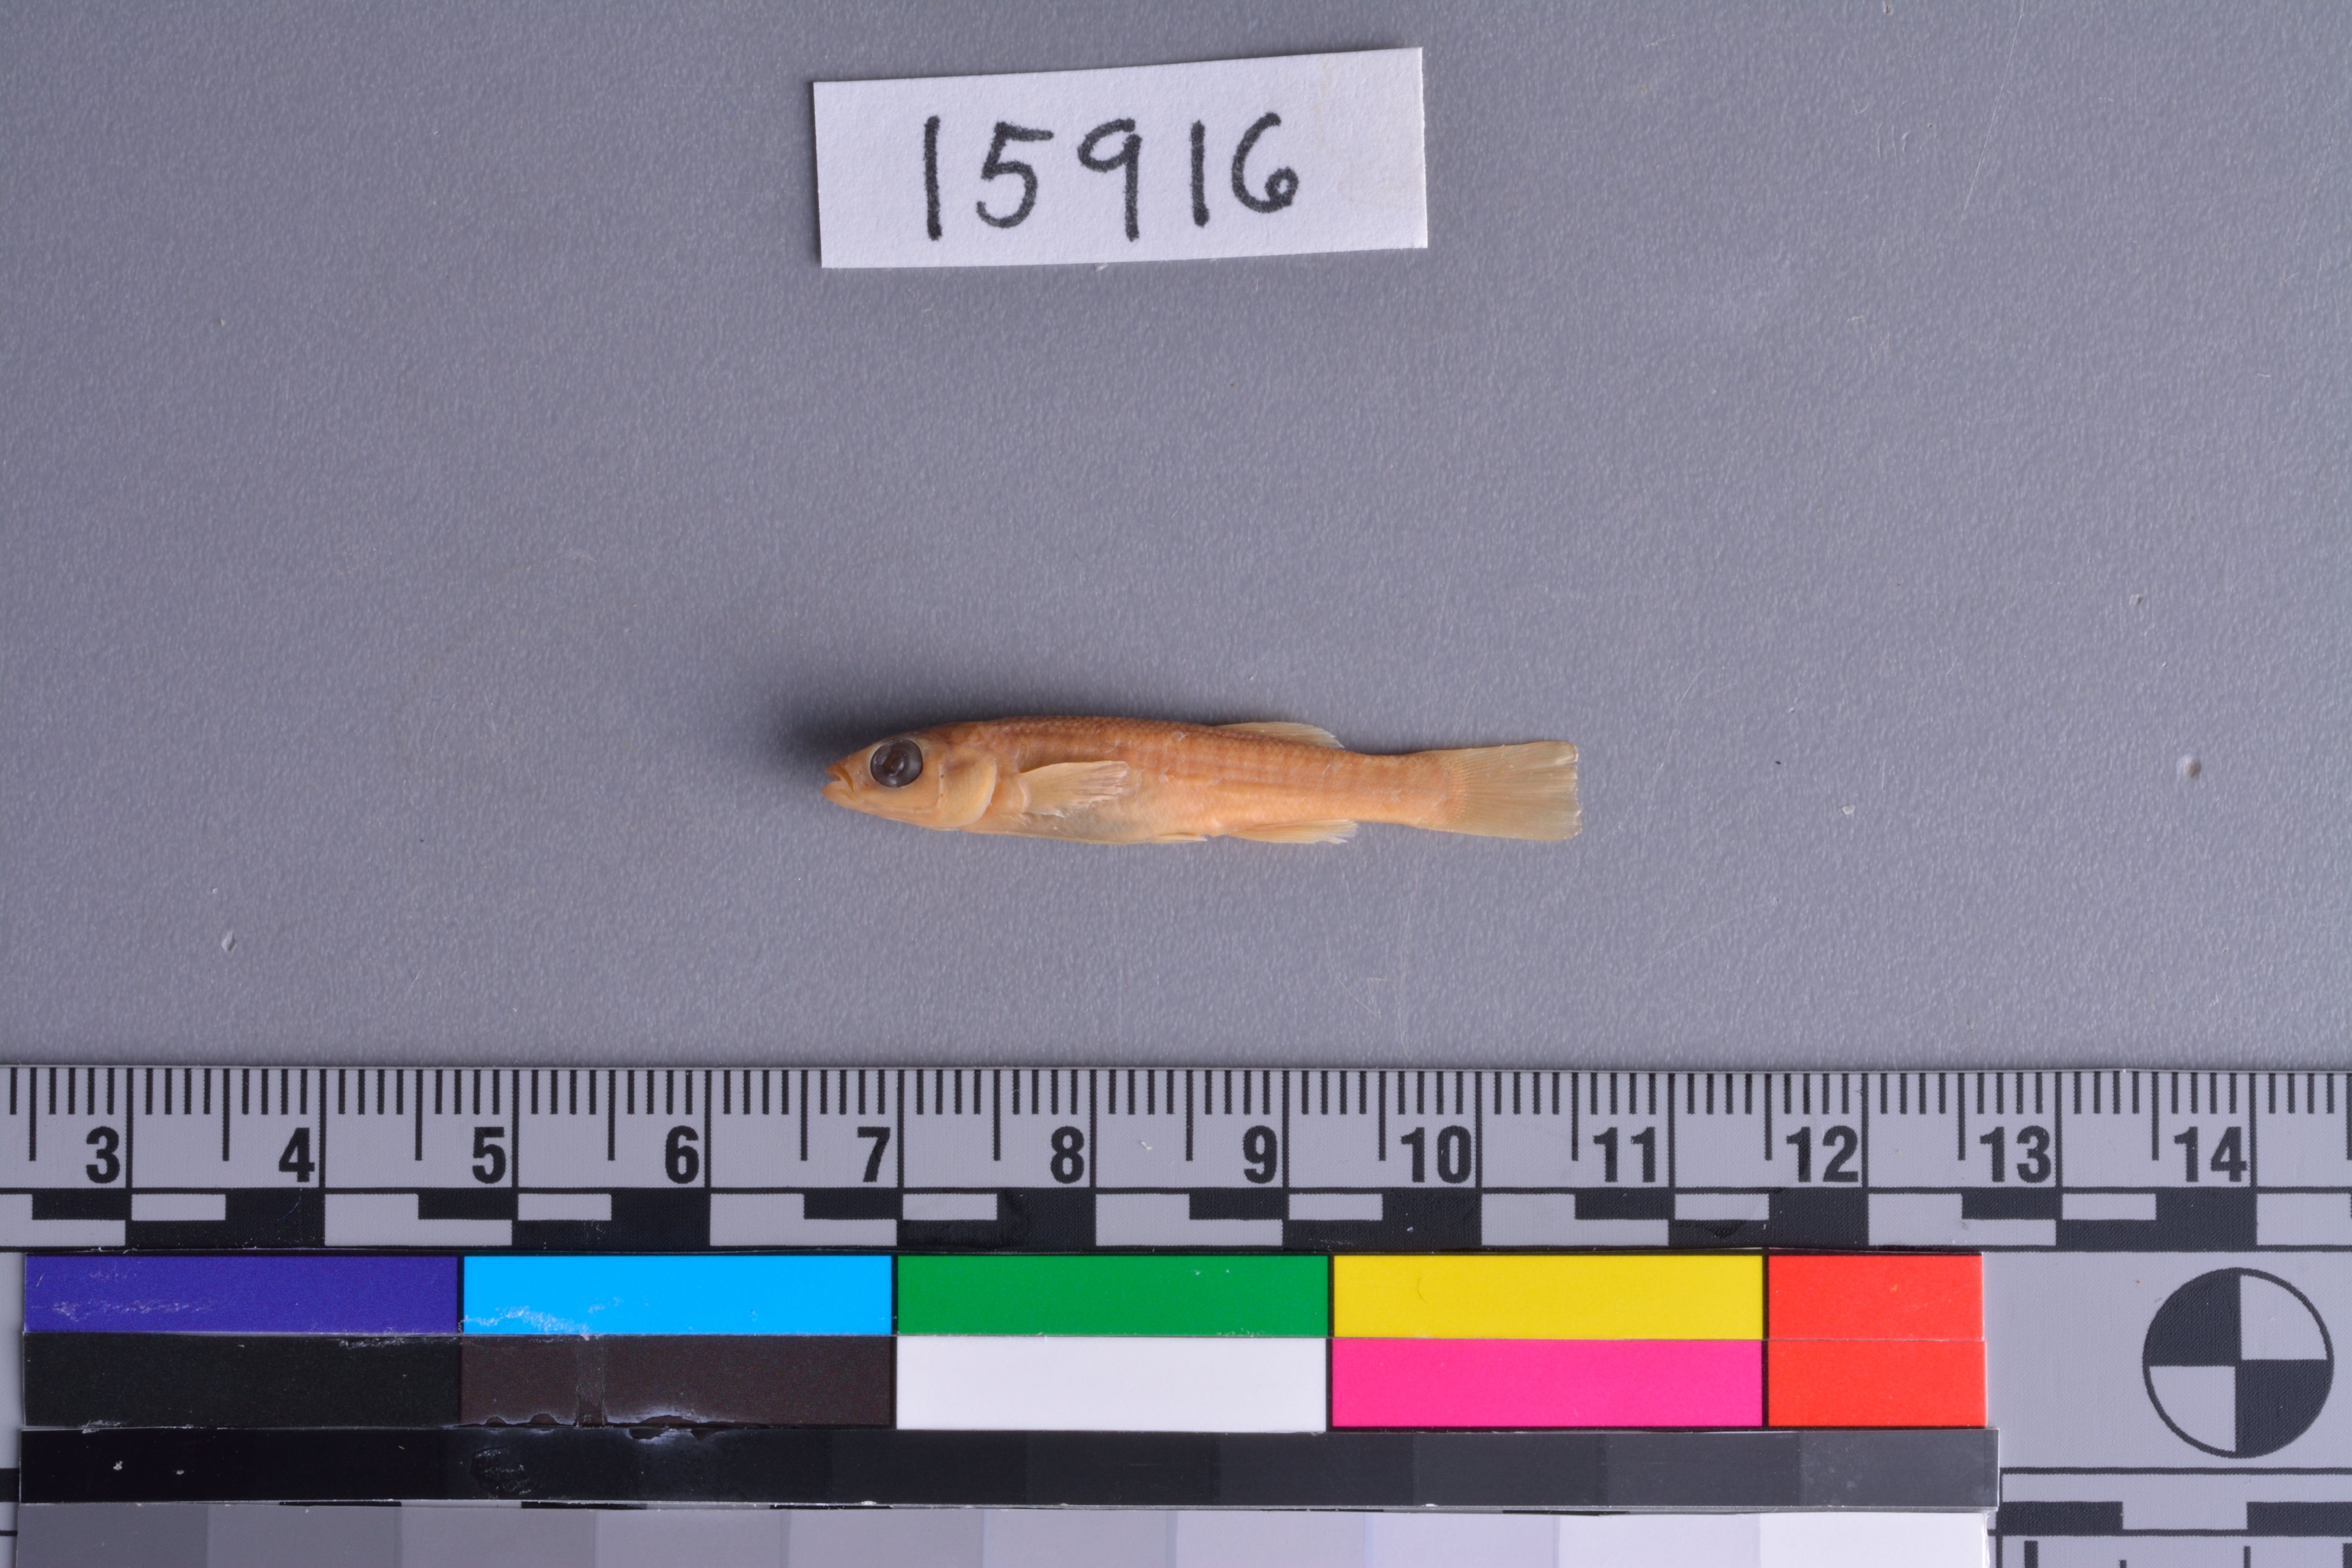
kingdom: Animalia
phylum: Chordata
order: Cyprinodontiformes
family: Fundulidae
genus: Fundulus
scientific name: Fundulus grandis
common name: Gulf killifish
